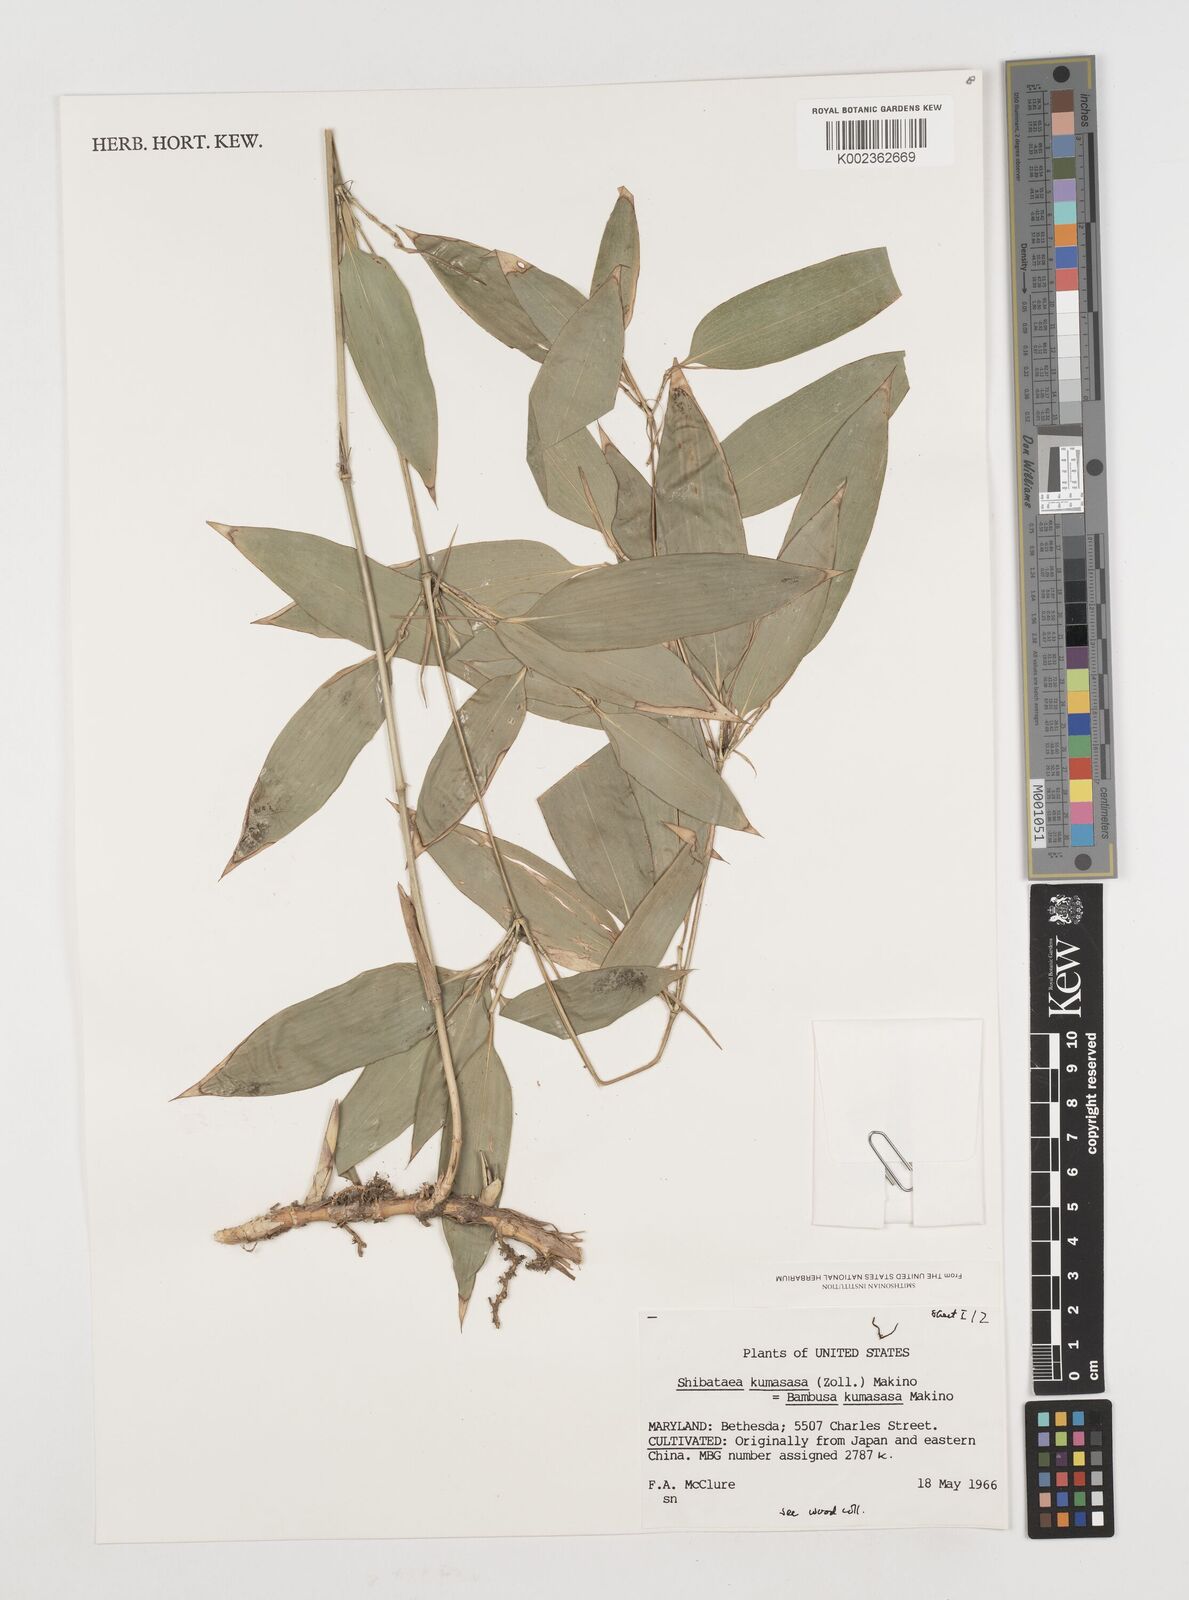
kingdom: Plantae
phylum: Tracheophyta
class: Liliopsida
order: Poales
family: Poaceae
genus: Shibataea
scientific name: Shibataea
